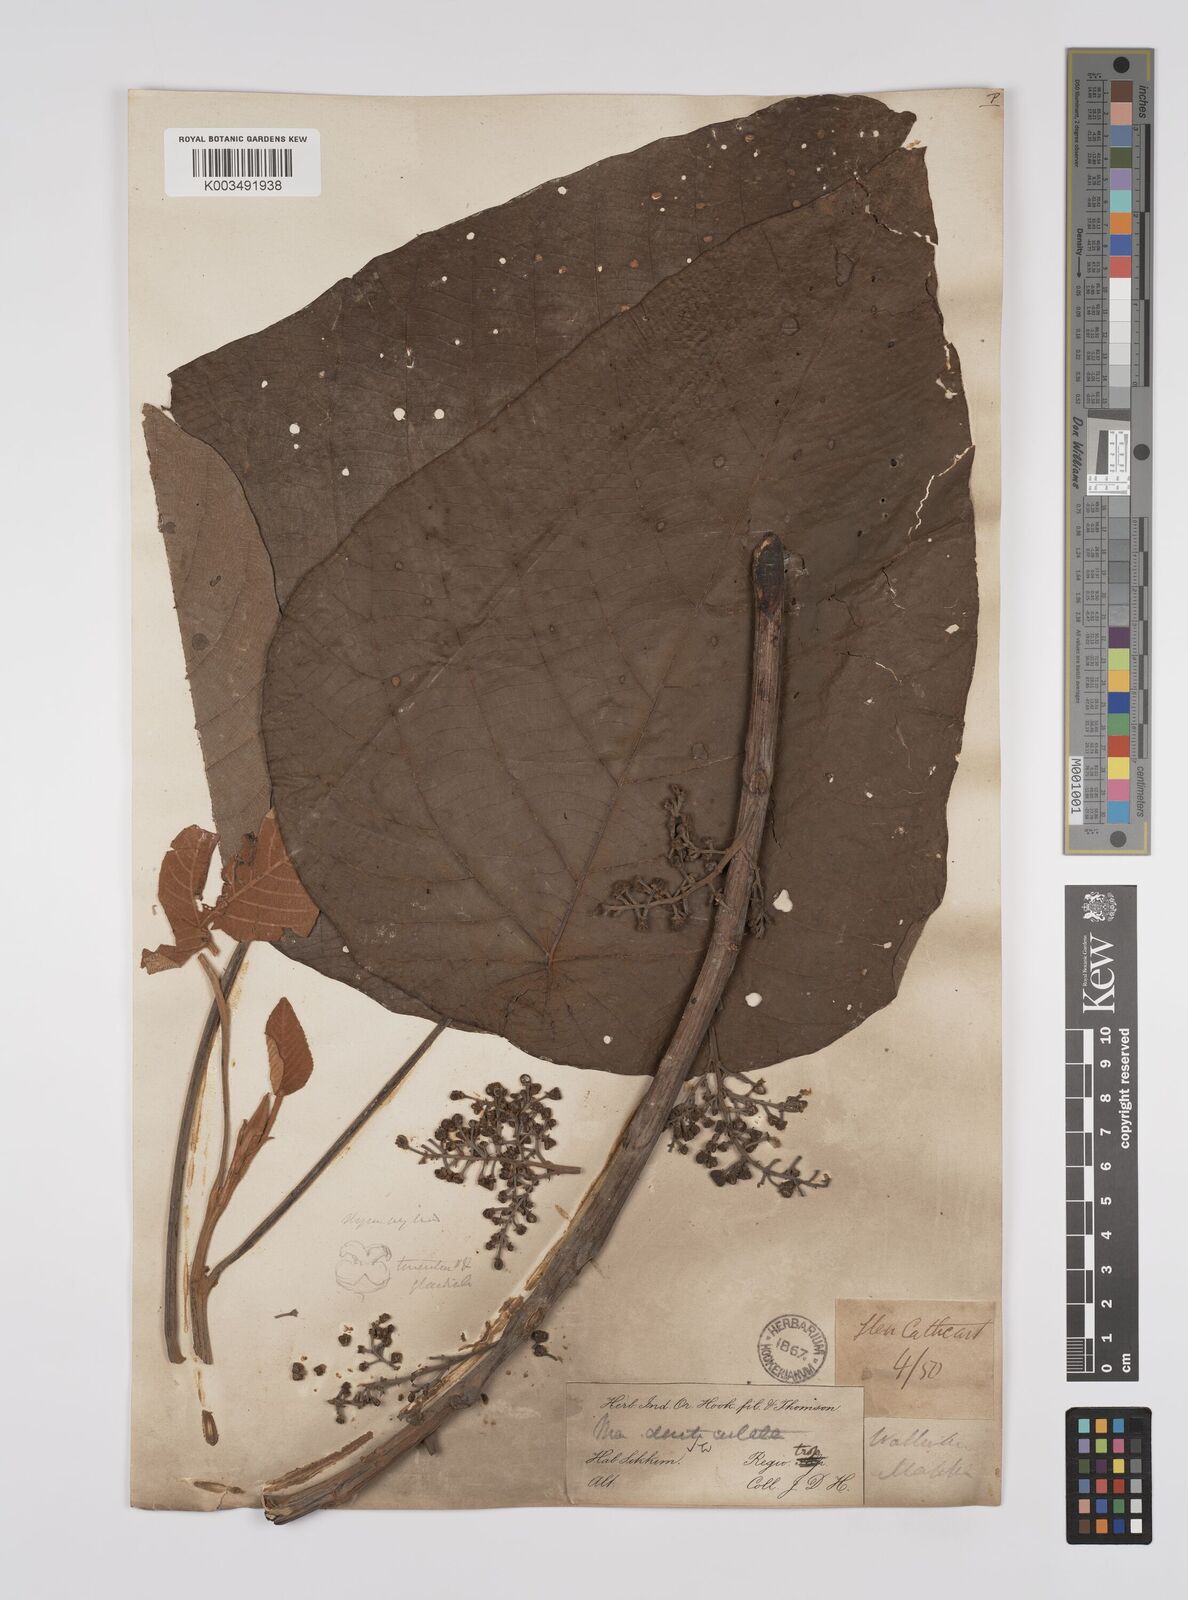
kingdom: Plantae
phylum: Tracheophyta
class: Magnoliopsida
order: Malpighiales
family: Euphorbiaceae
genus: Macaranga
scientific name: Macaranga denticulata
